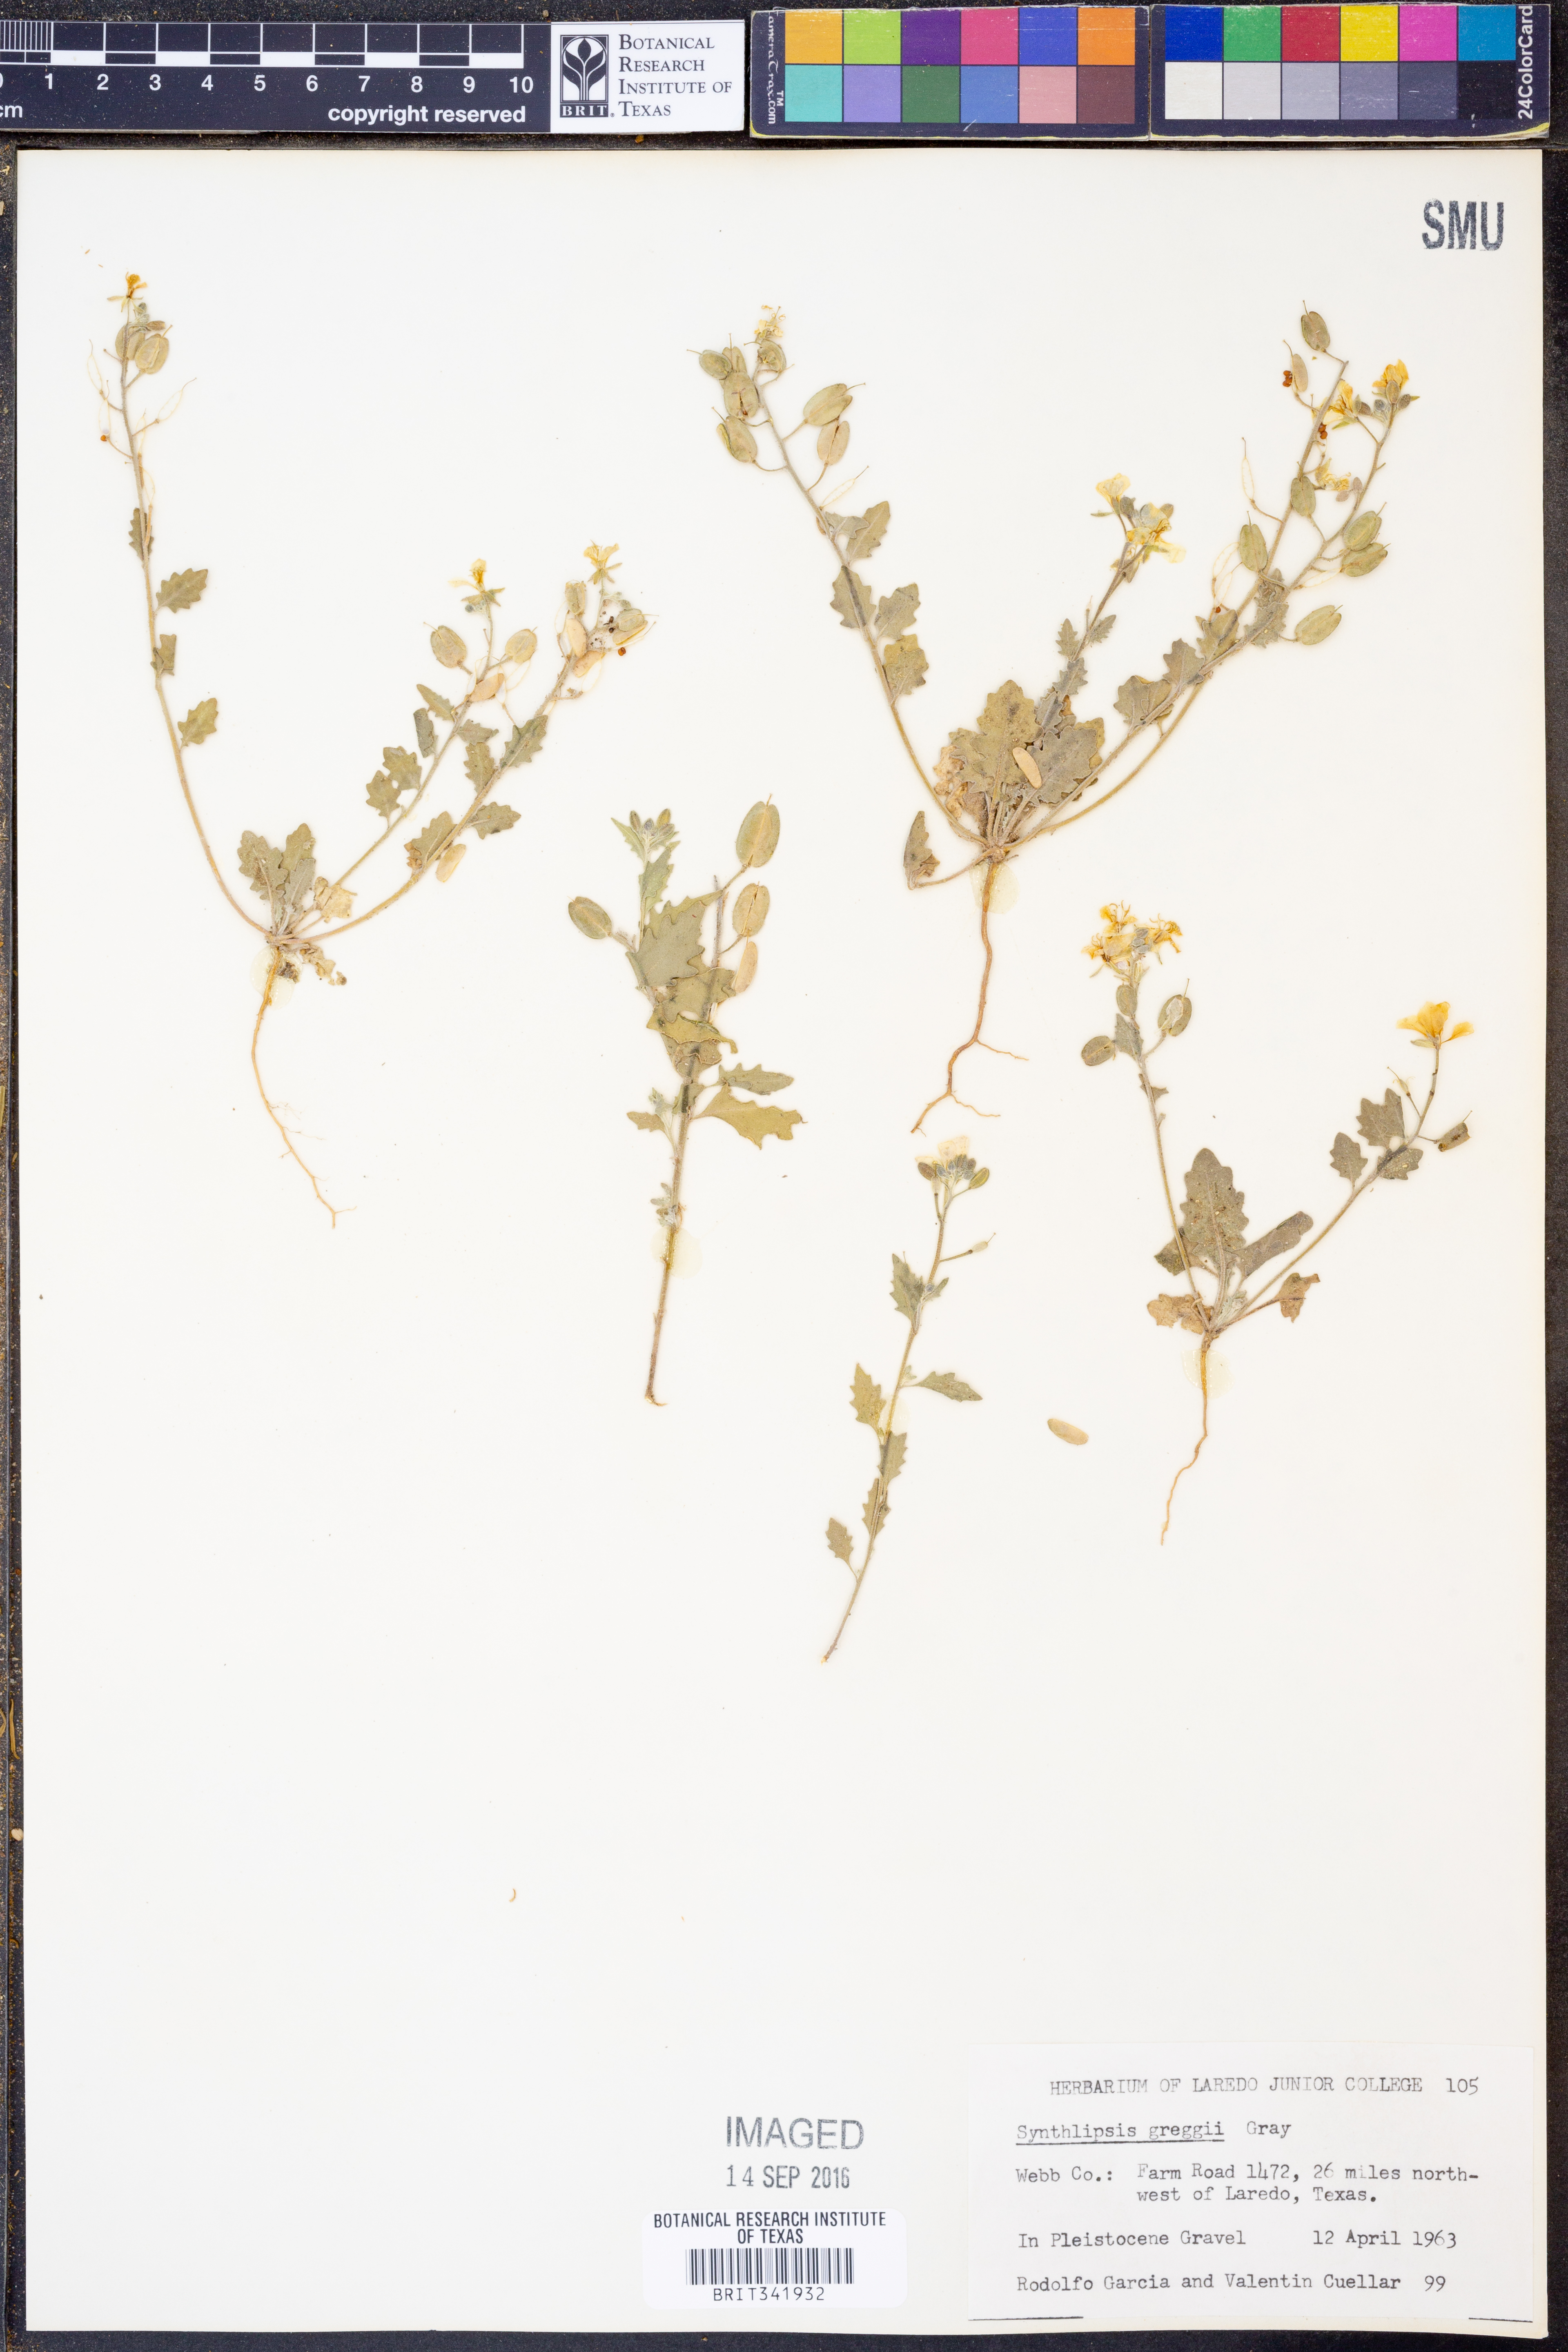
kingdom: Plantae
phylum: Tracheophyta
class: Magnoliopsida
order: Brassicales
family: Brassicaceae
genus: Synthlipsis
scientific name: Synthlipsis greggii
